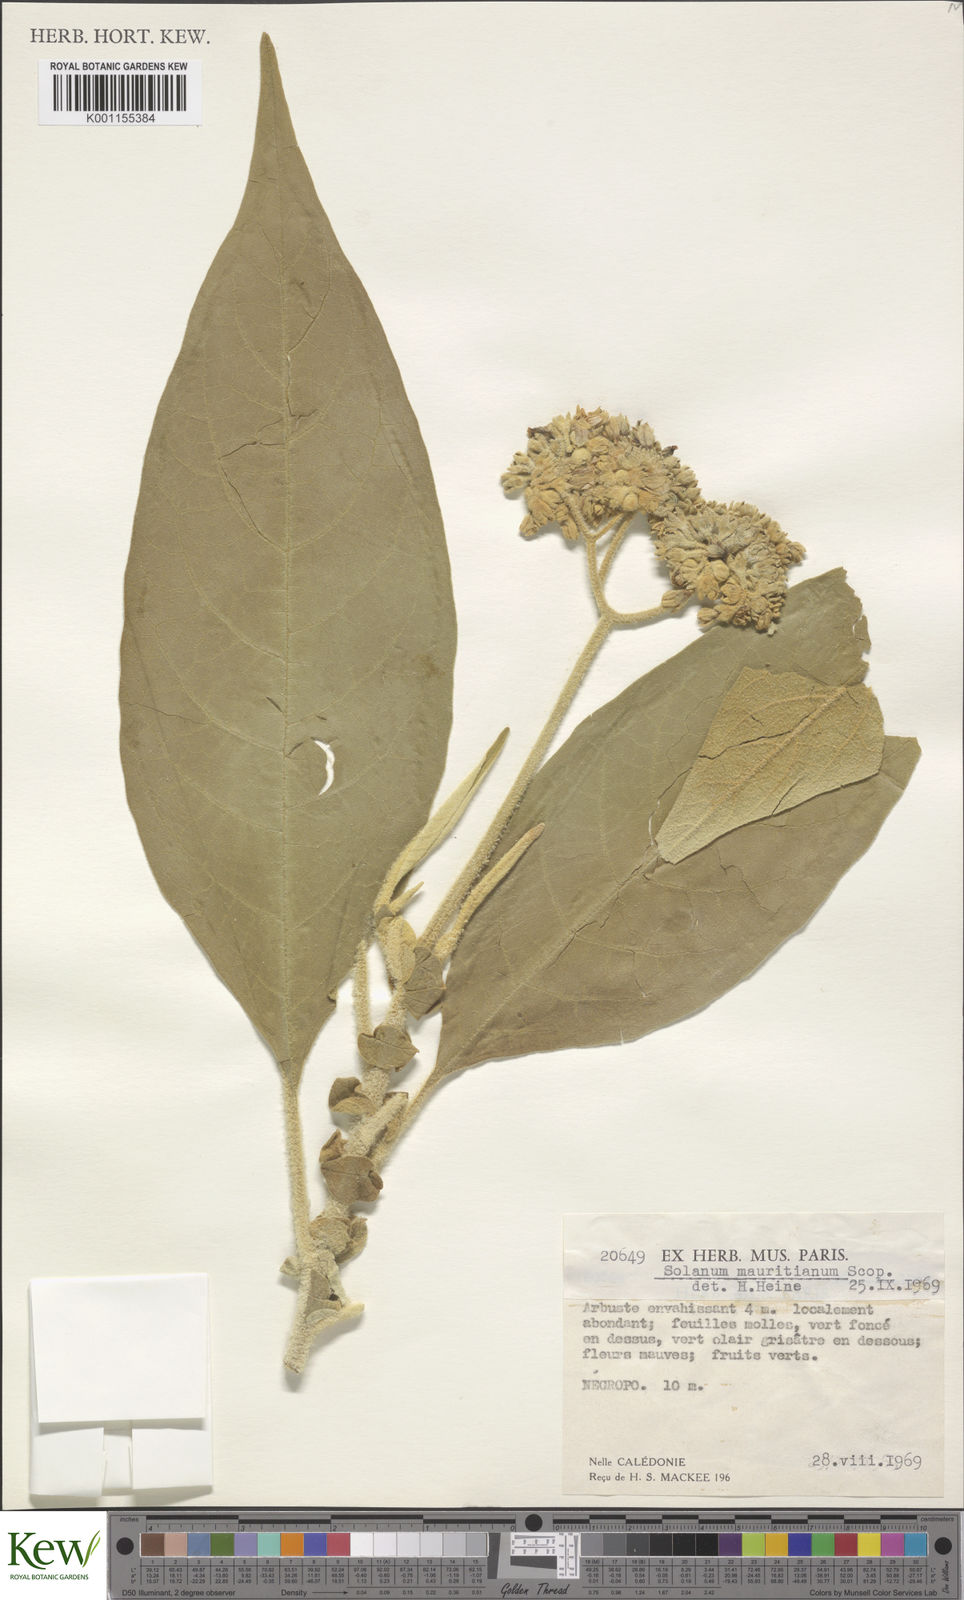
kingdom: Plantae
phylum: Tracheophyta
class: Magnoliopsida
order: Solanales
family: Solanaceae
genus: Solanum
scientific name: Solanum mauritianum
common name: Earleaf nightshade
